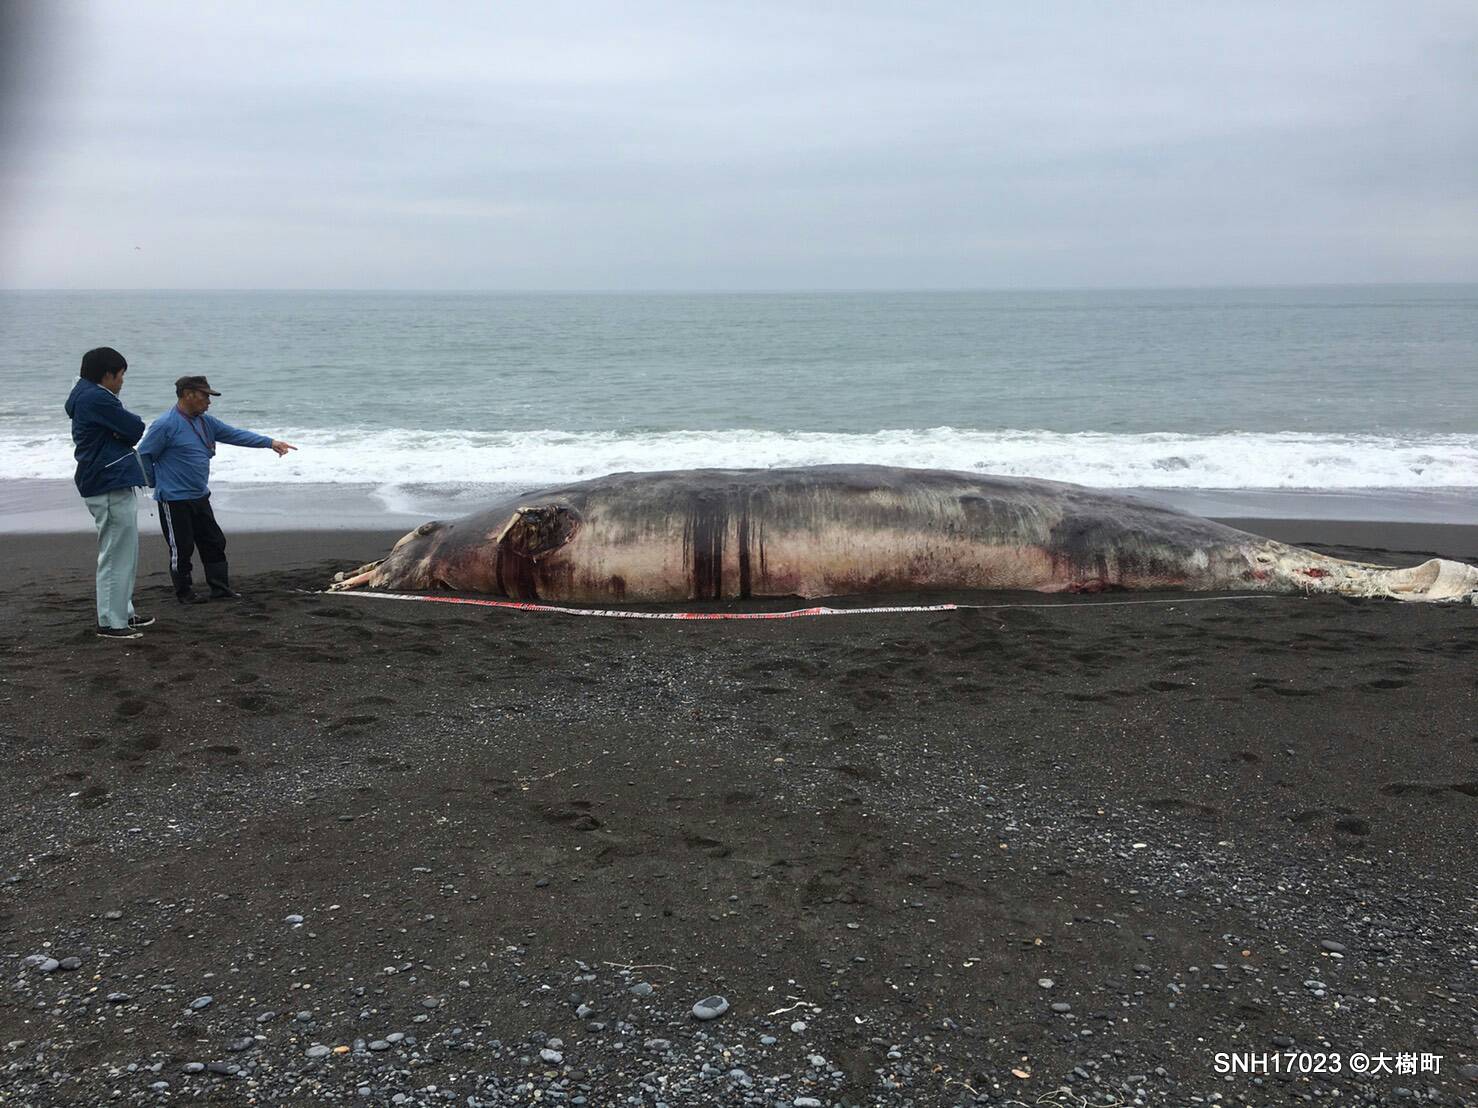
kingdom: Animalia
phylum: Chordata
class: Mammalia
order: Cetacea
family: Hyperoodontidae
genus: Berardius
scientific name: Berardius bairdii
